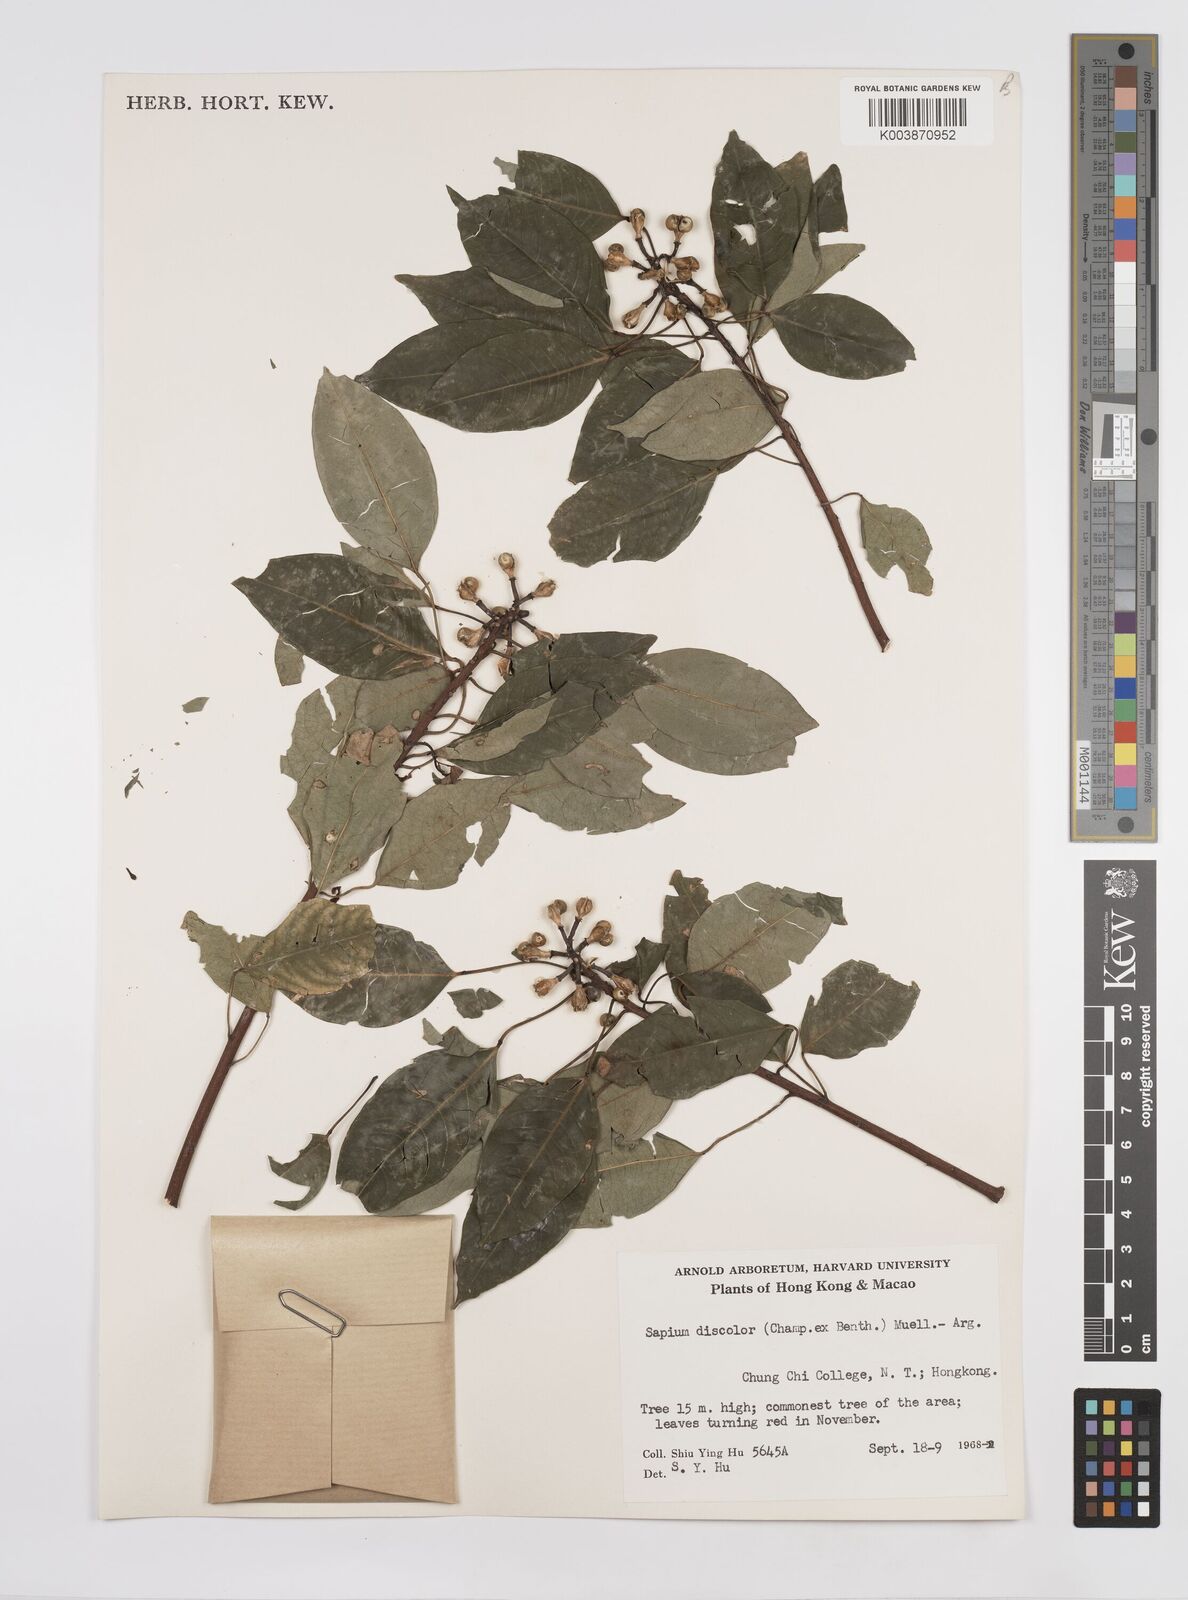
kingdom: Plantae
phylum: Tracheophyta
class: Magnoliopsida
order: Malpighiales
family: Euphorbiaceae
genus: Triadica
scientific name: Triadica cochinchinensis
